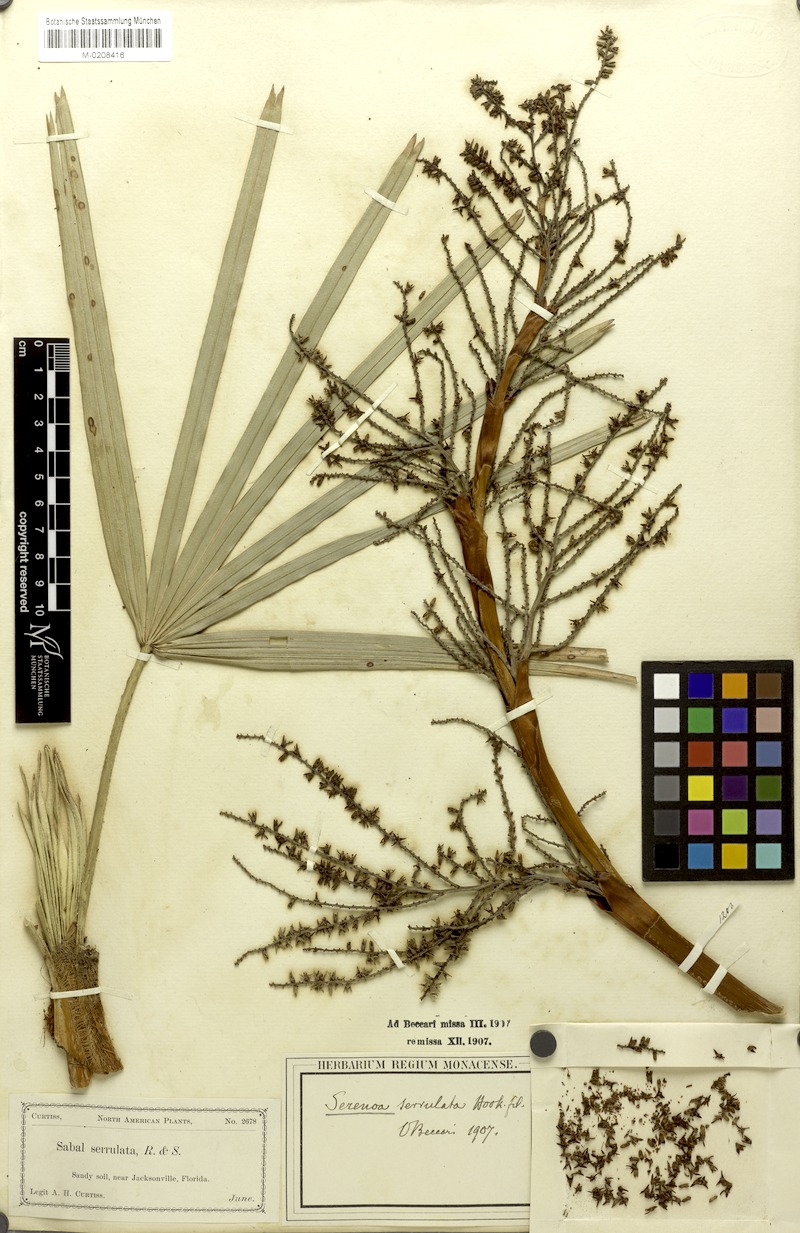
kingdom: Plantae
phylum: Tracheophyta
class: Liliopsida
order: Arecales
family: Arecaceae
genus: Serenoa
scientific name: Serenoa repens
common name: Saw-palmetto
